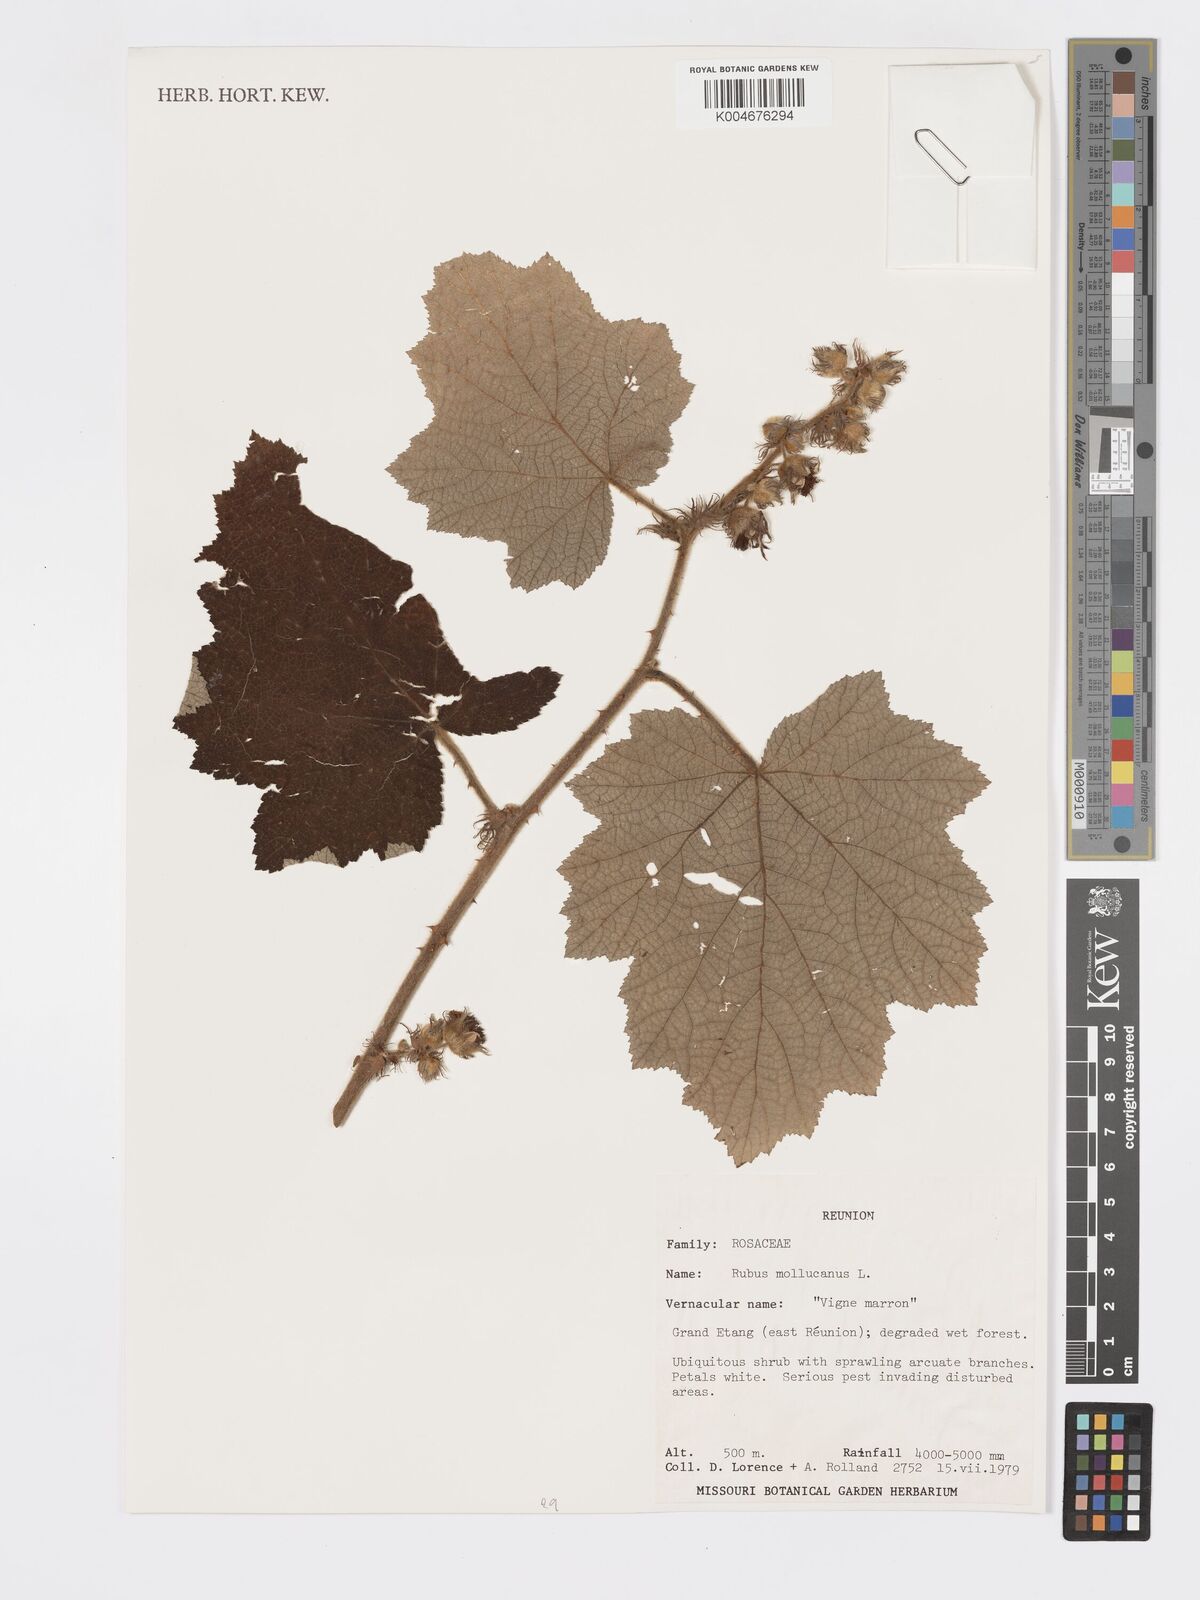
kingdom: Plantae
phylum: Tracheophyta
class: Magnoliopsida
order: Rosales
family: Rosaceae
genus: Rubus
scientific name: Rubus moluccanus
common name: Wild raspberry
